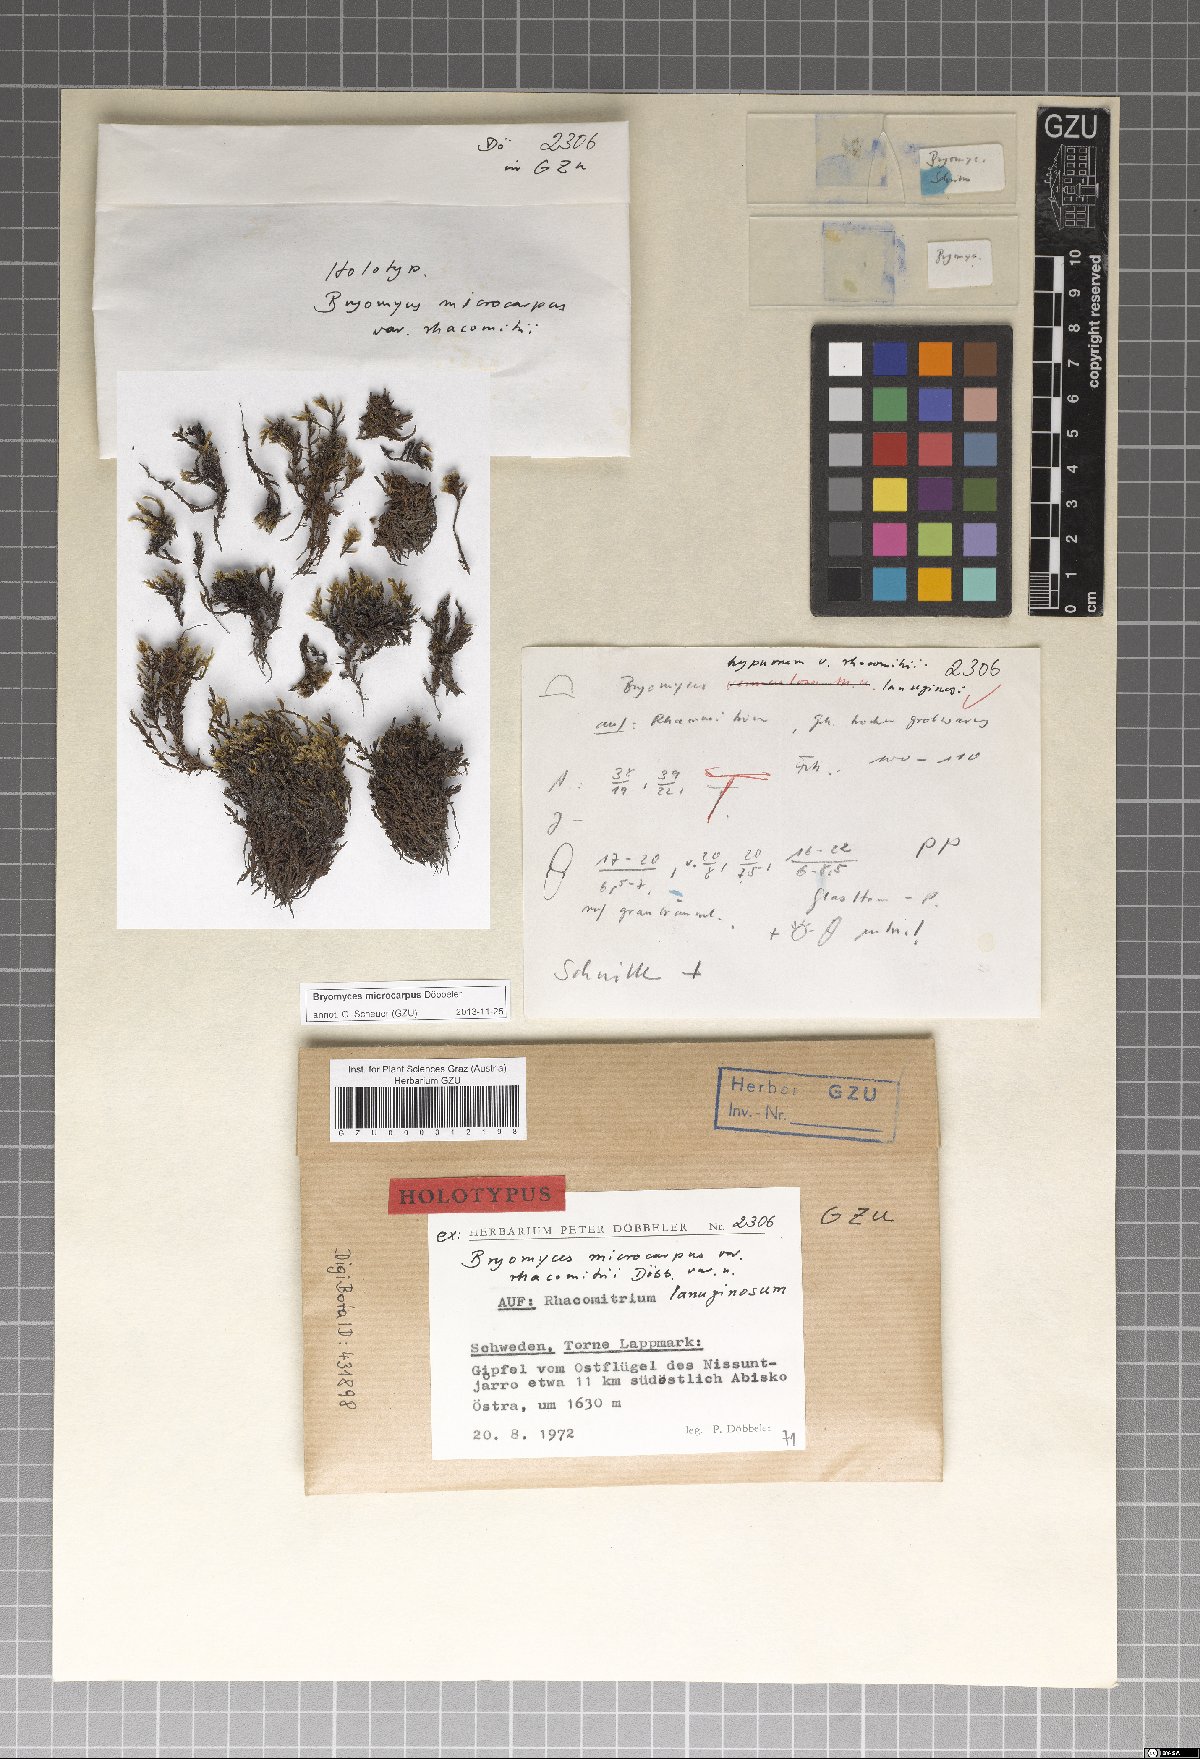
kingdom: Fungi
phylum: Ascomycota
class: Dothideomycetes
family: Pseudoperisporiaceae
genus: Bryomyces
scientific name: Bryomyces microcarpus
